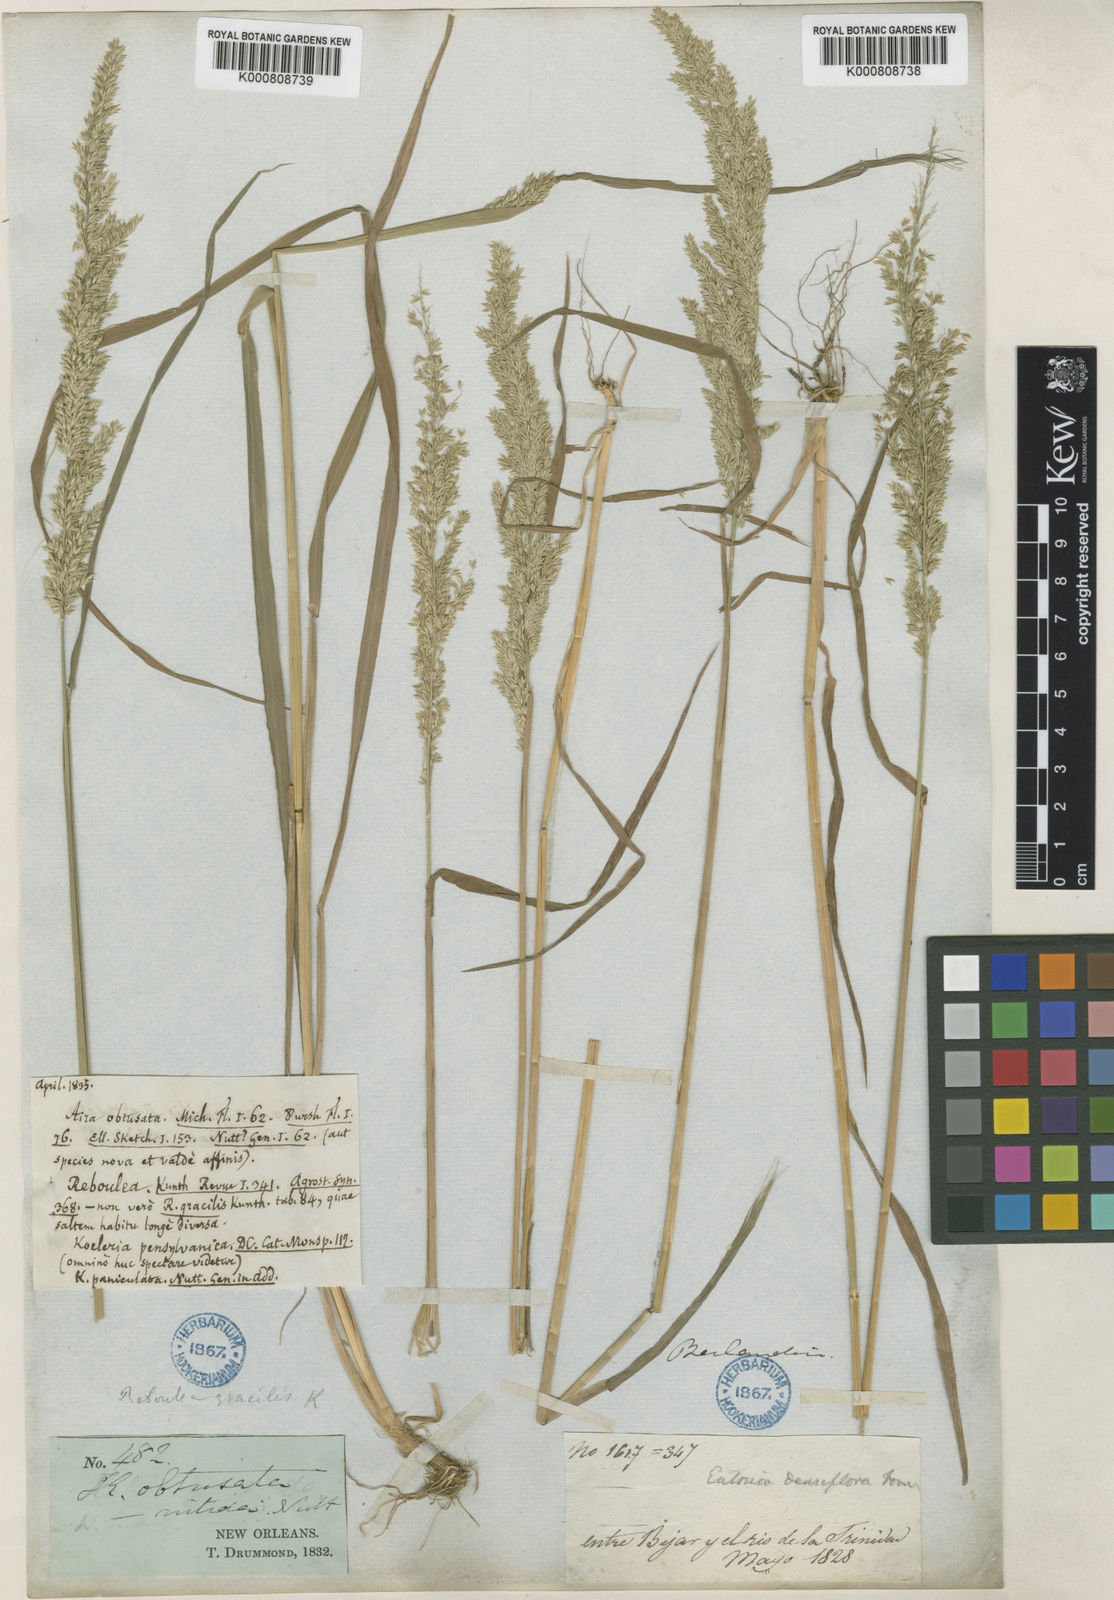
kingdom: Plantae
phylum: Tracheophyta
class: Liliopsida
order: Poales
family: Poaceae
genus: Sphenopholis
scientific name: Sphenopholis obtusata
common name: Prairie grass
